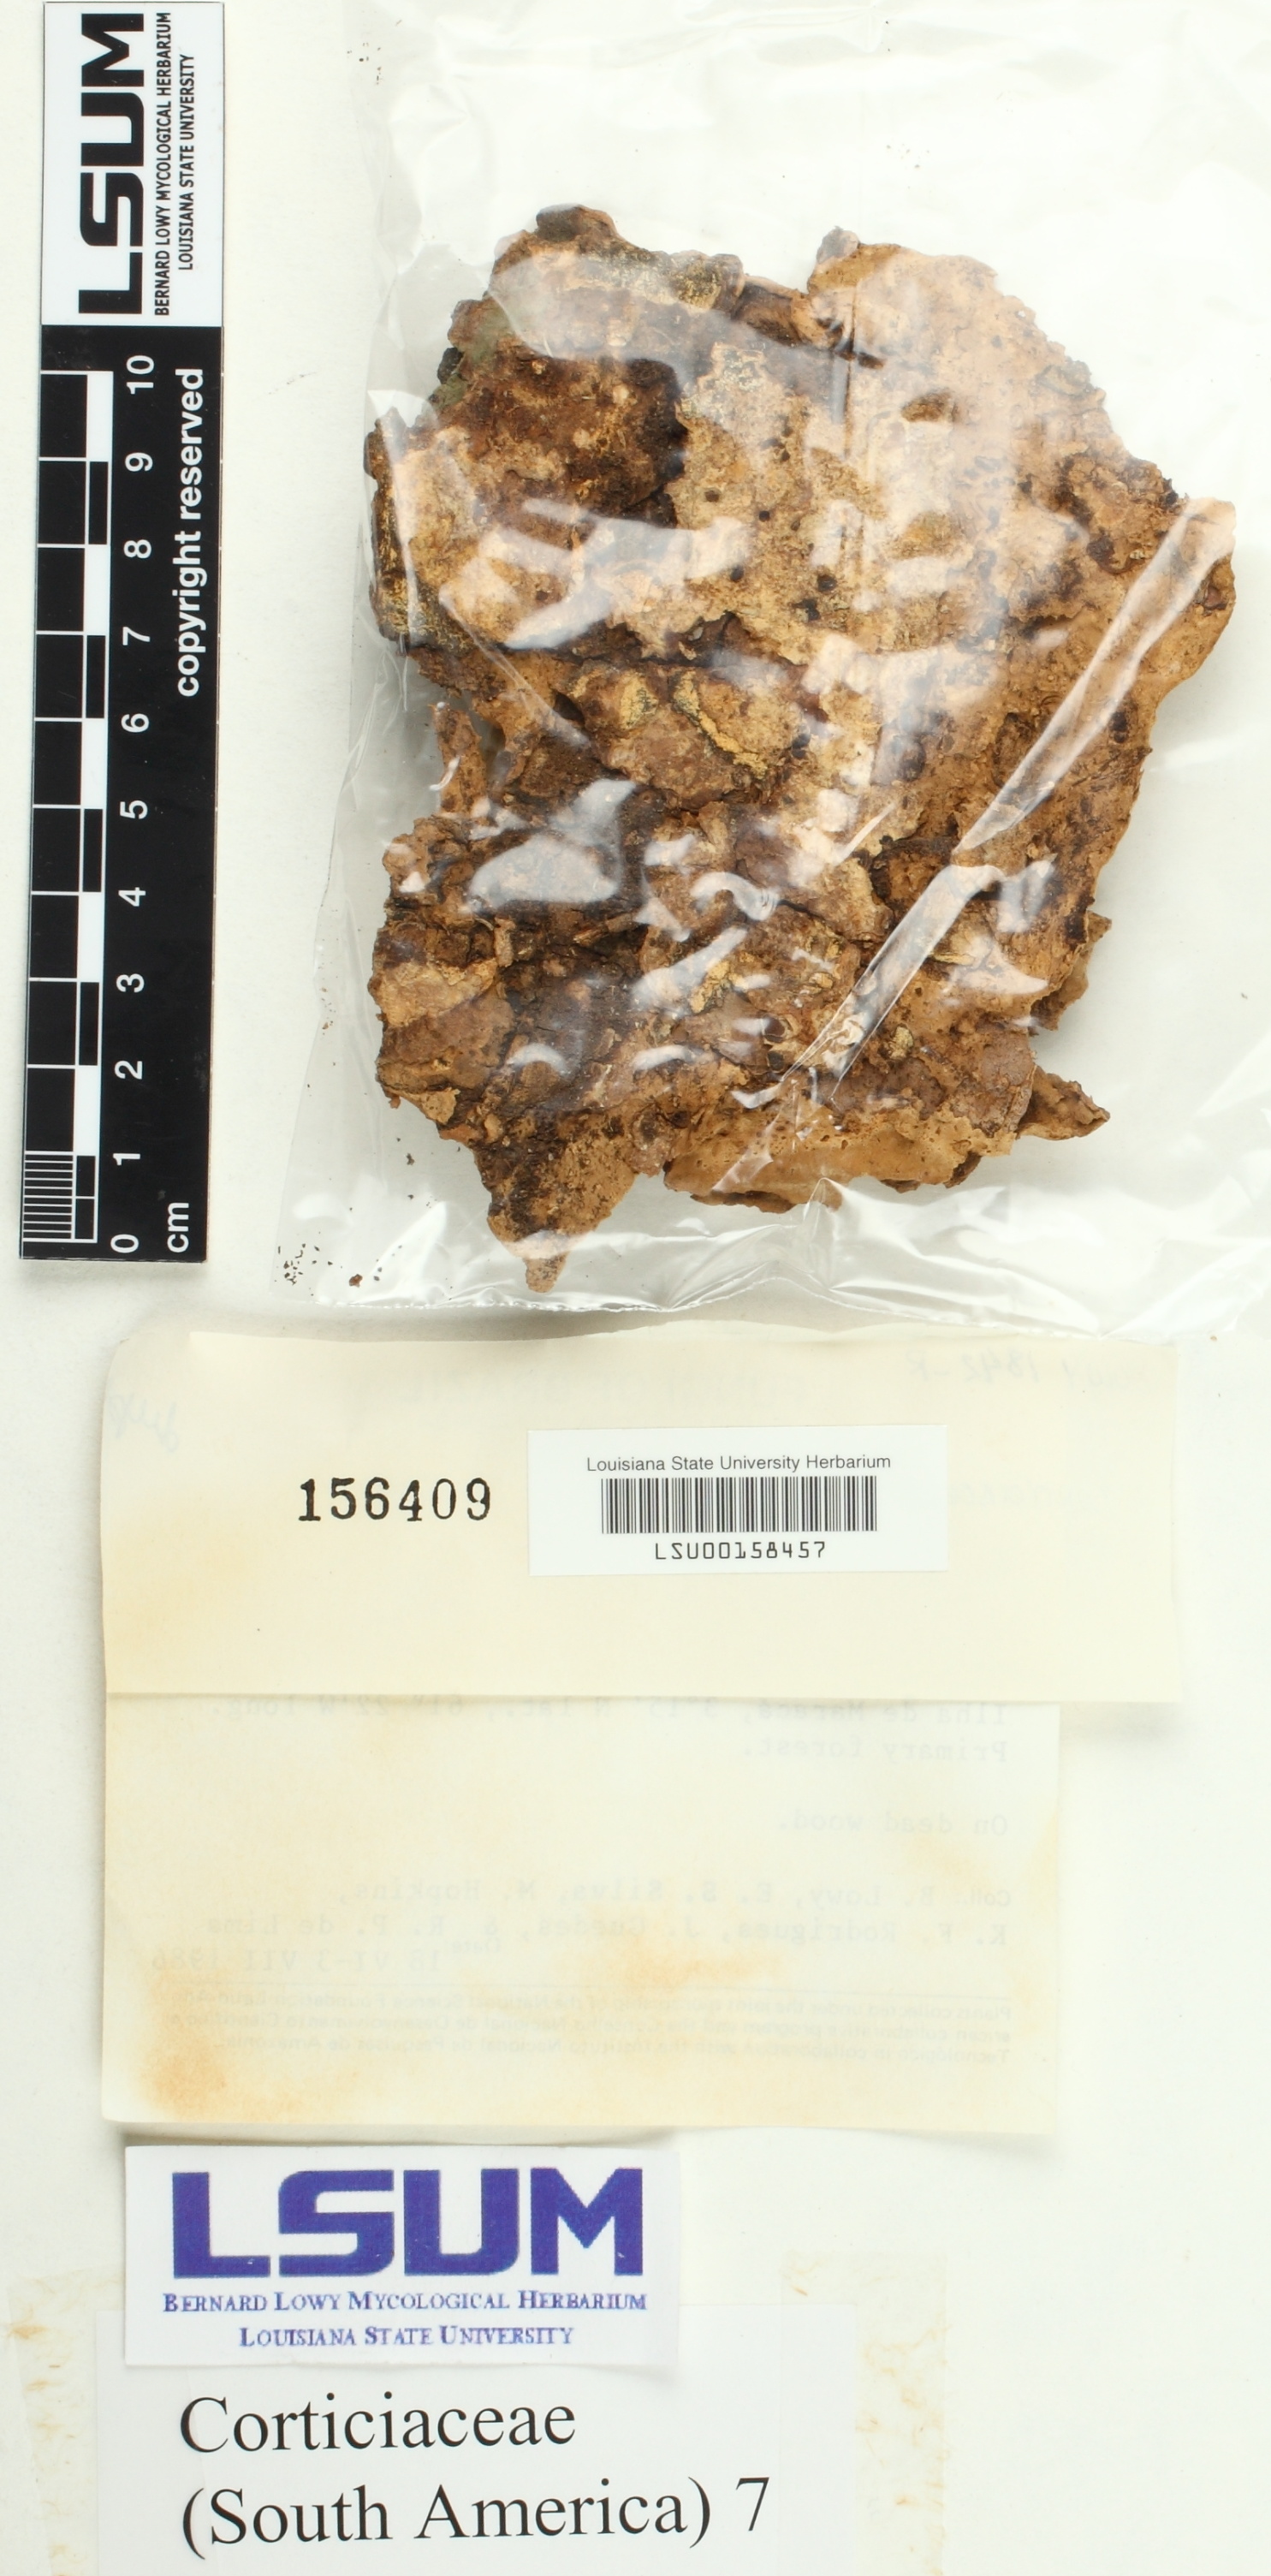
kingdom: Fungi
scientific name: Fungi
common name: Fungi
